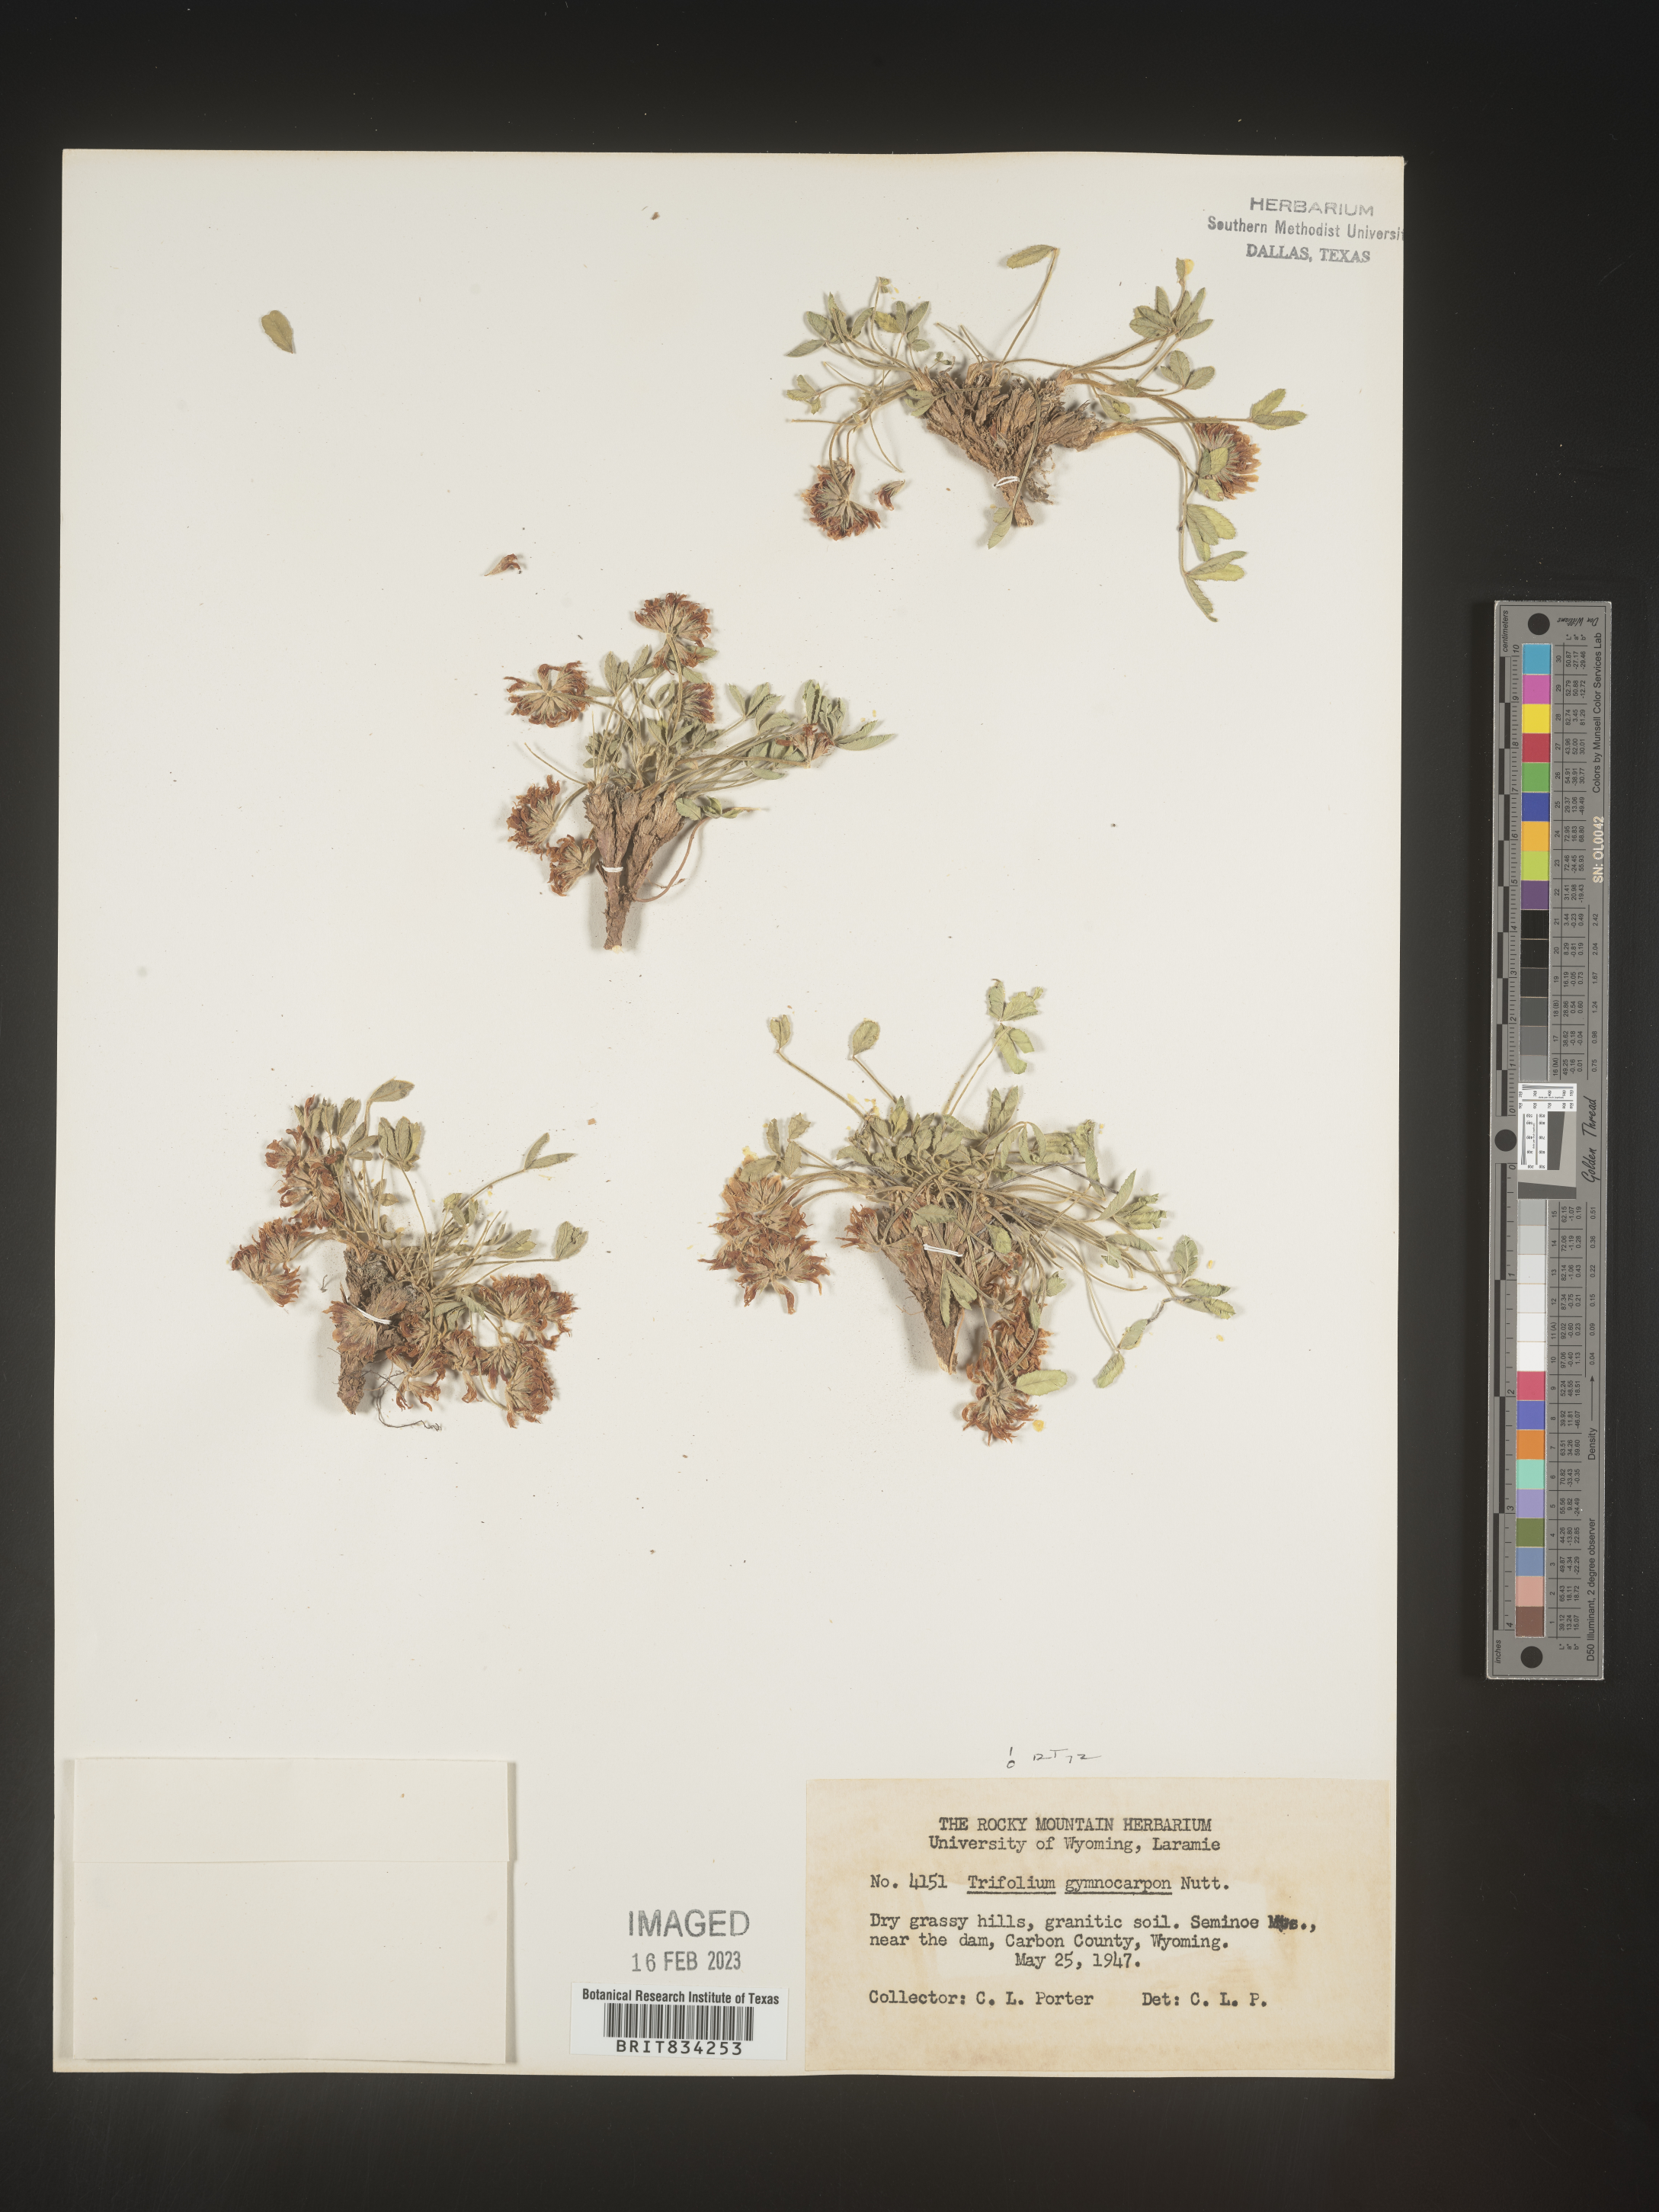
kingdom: Plantae
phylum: Tracheophyta
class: Magnoliopsida
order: Fabales
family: Fabaceae
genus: Trifolium
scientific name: Trifolium
